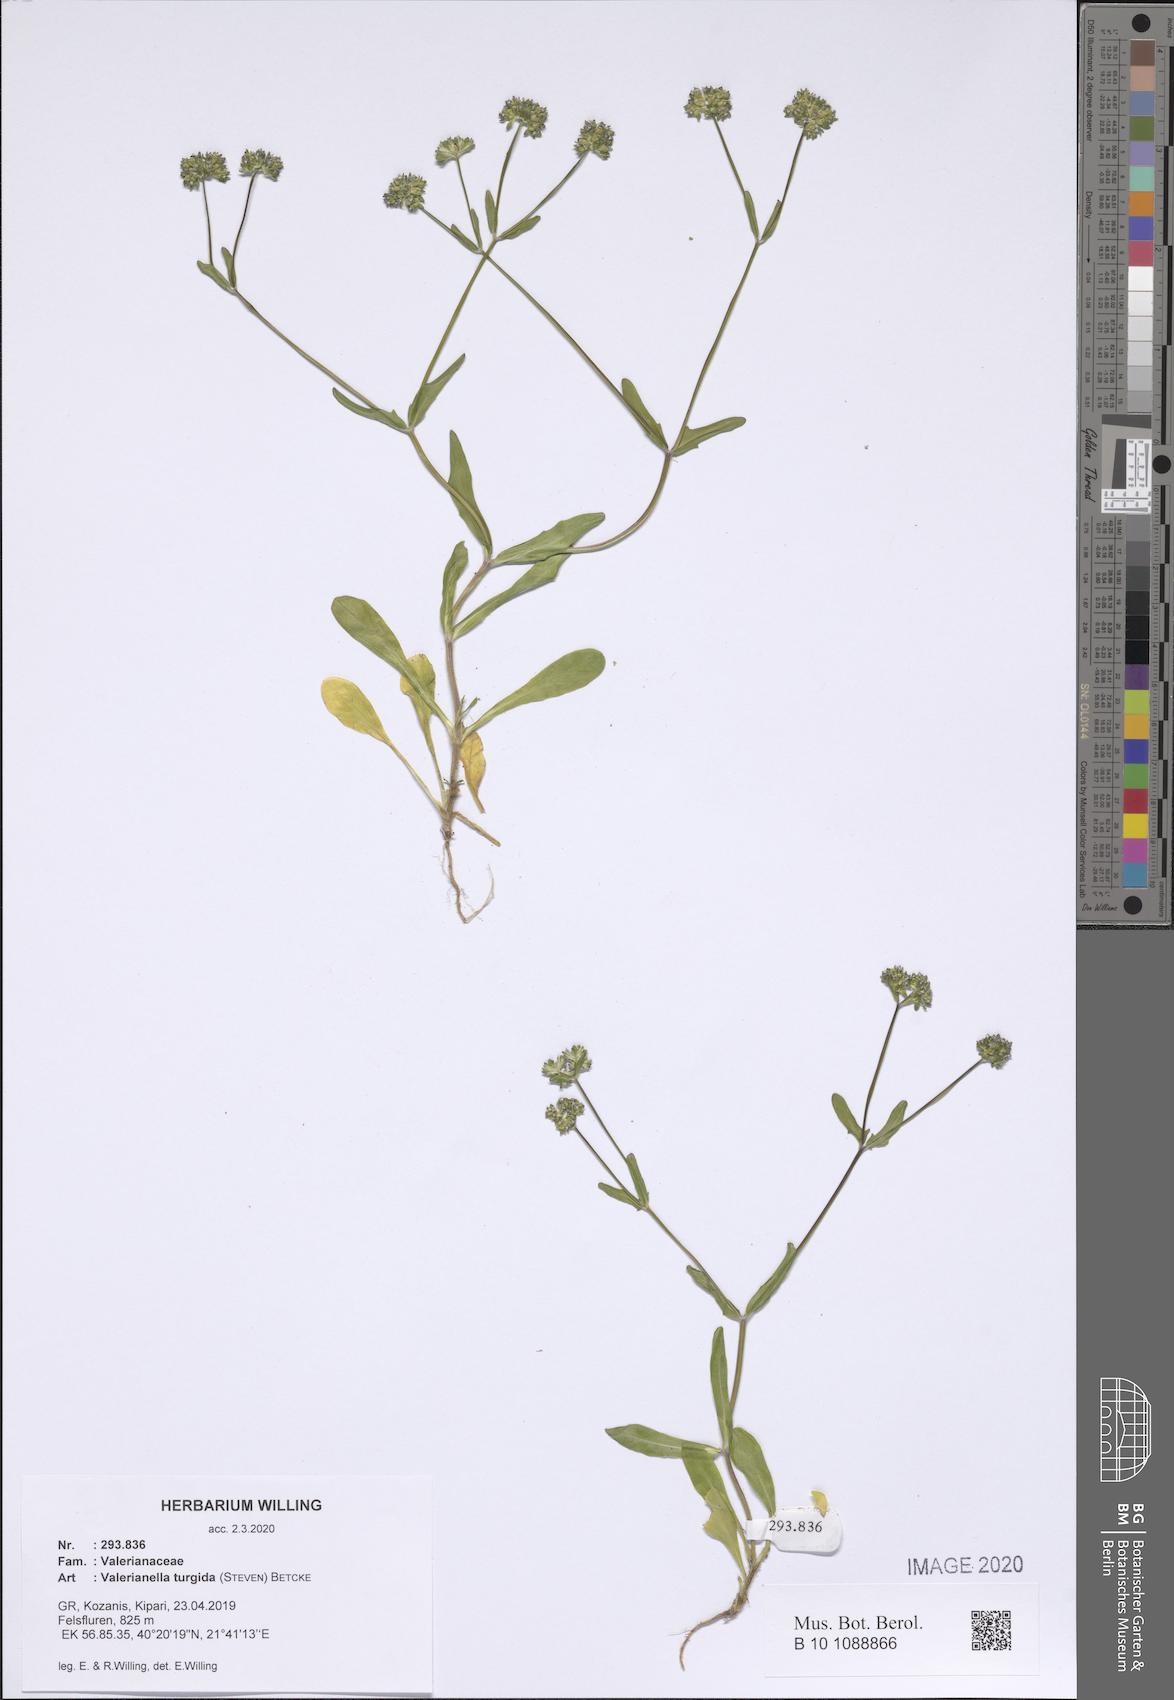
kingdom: Plantae
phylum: Tracheophyta
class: Magnoliopsida
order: Dipsacales
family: Caprifoliaceae
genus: Valerianella
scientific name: Valerianella turgida
